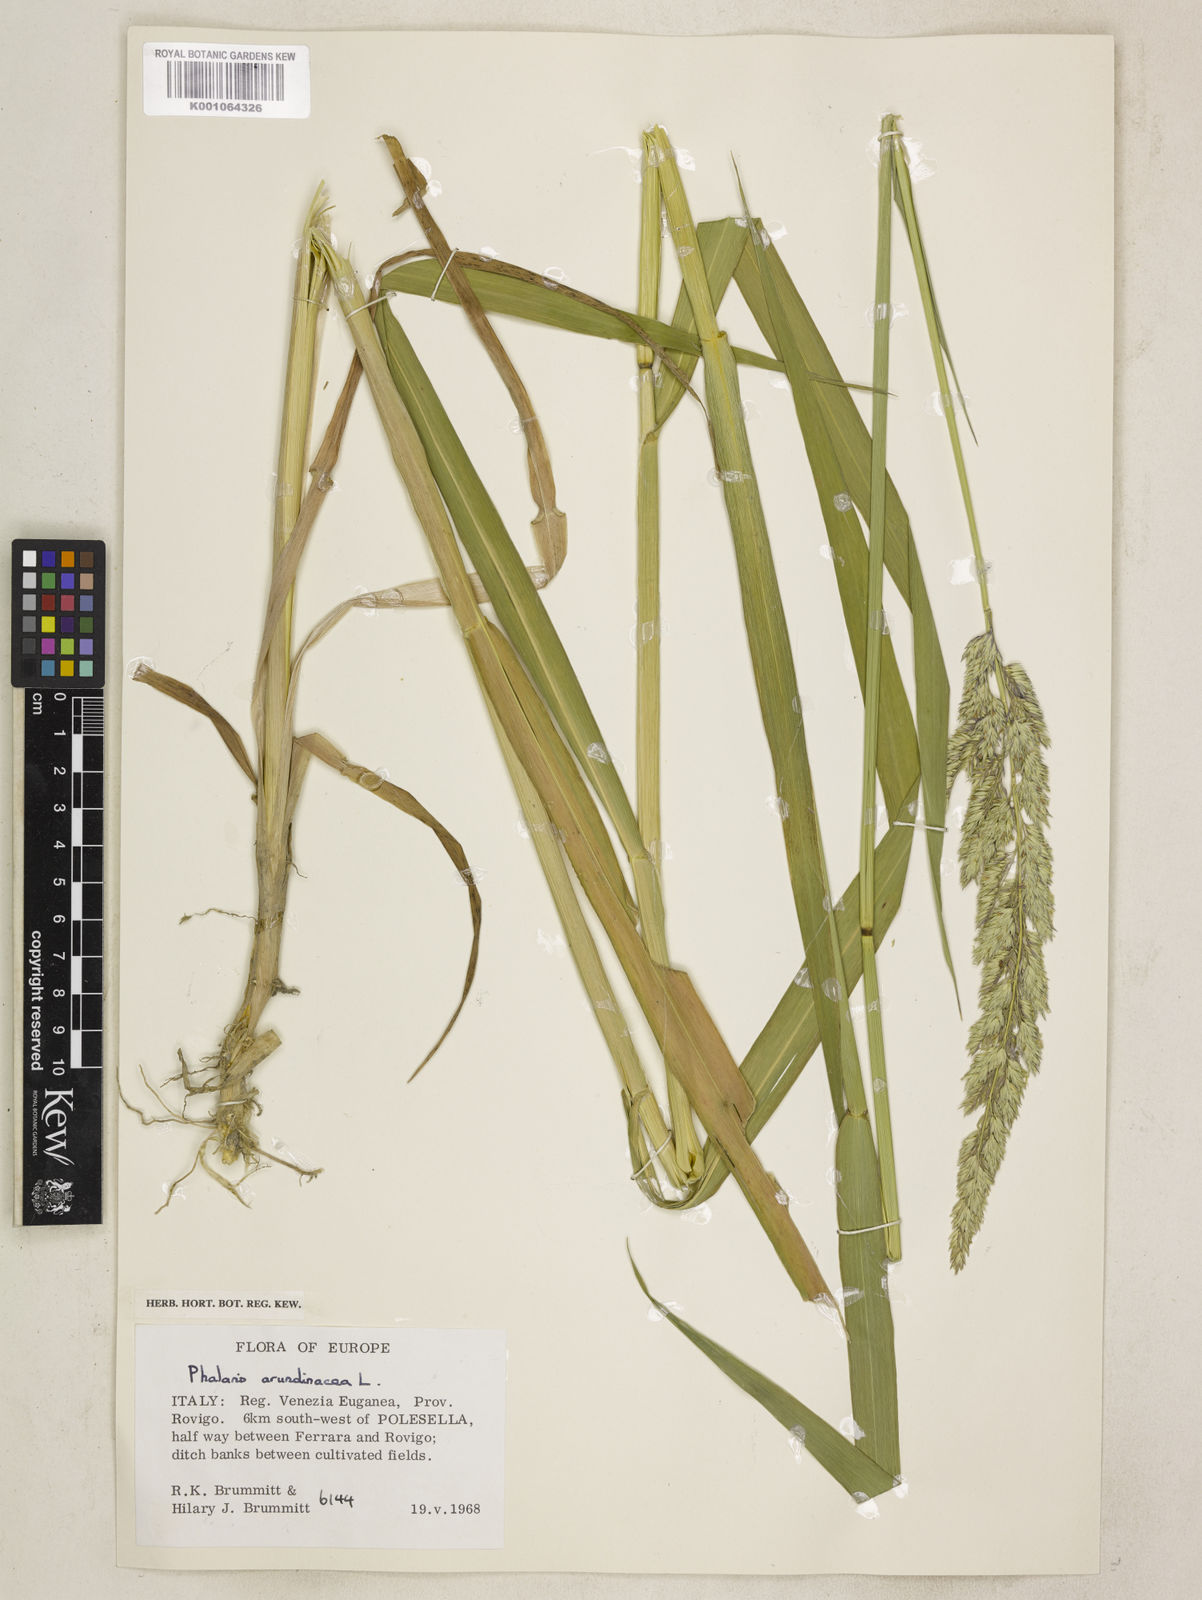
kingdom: Plantae
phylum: Tracheophyta
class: Liliopsida
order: Poales
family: Poaceae
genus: Phalaris
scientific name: Phalaris arundinacea
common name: Reed canary-grass
